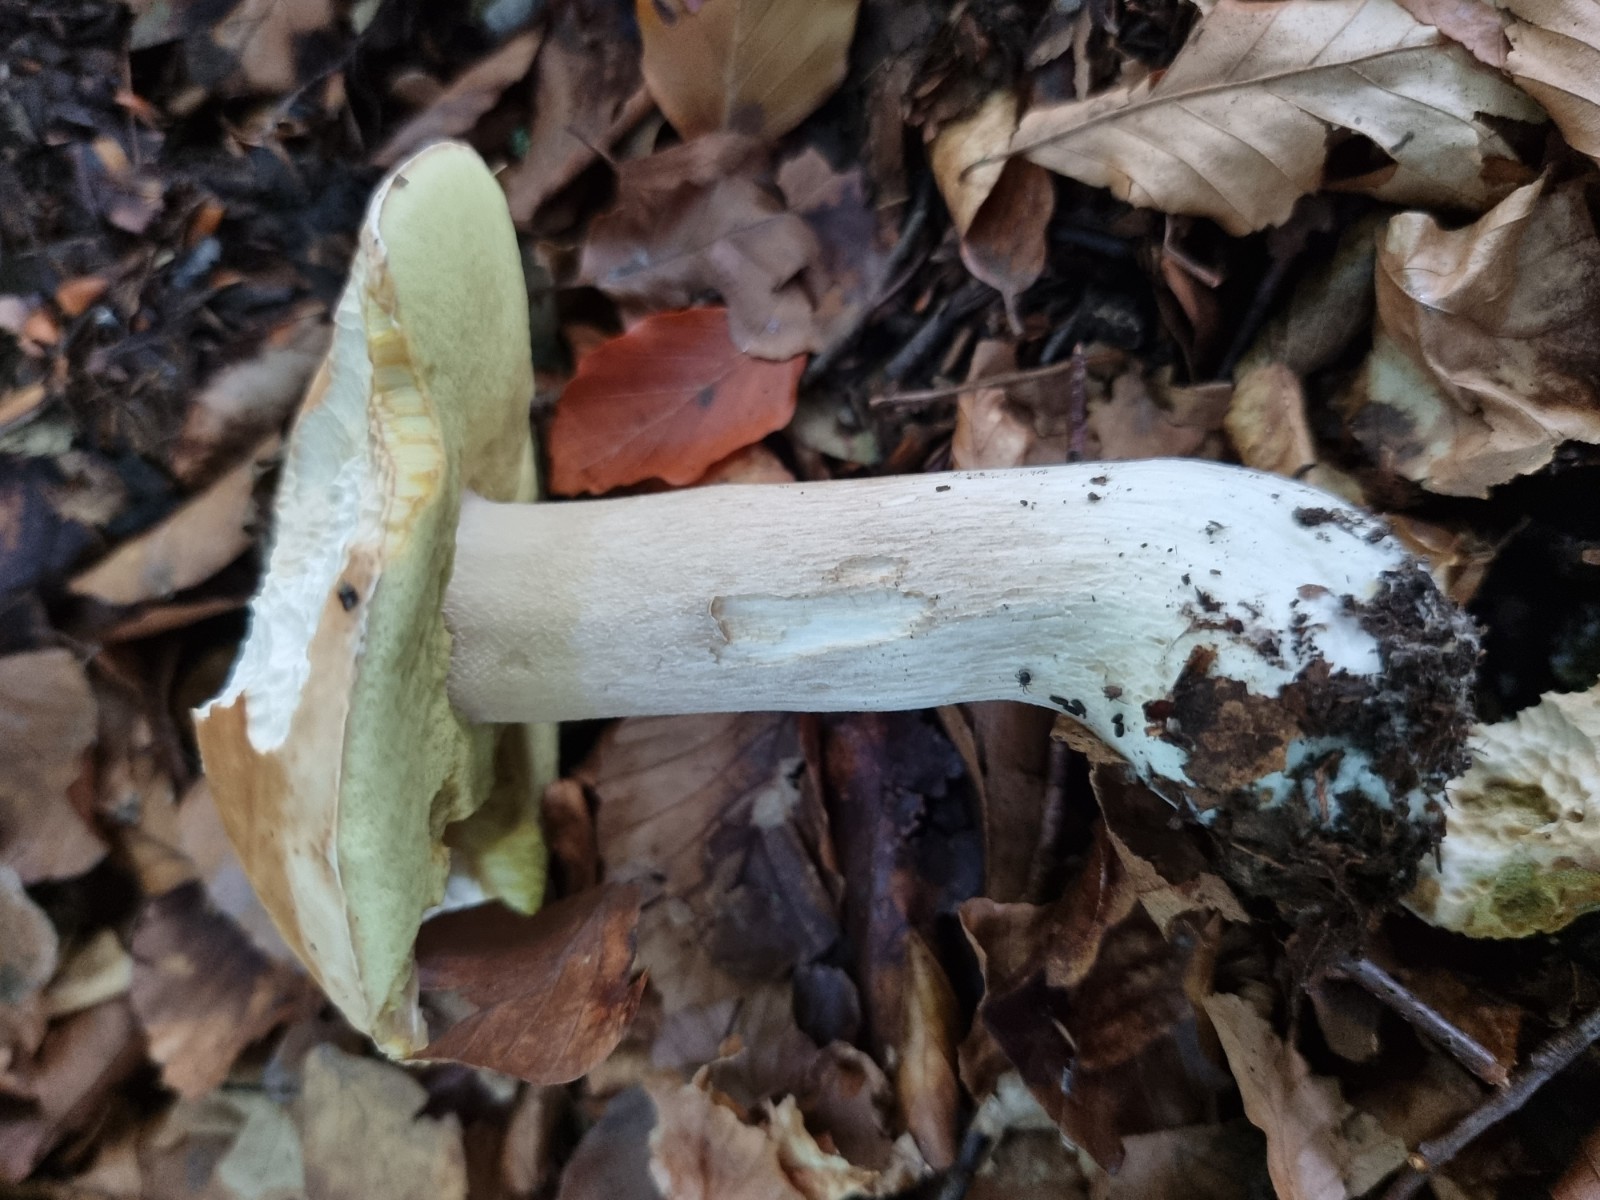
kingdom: Fungi
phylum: Basidiomycota
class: Agaricomycetes
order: Boletales
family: Boletaceae
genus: Boletus
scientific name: Boletus edulis
